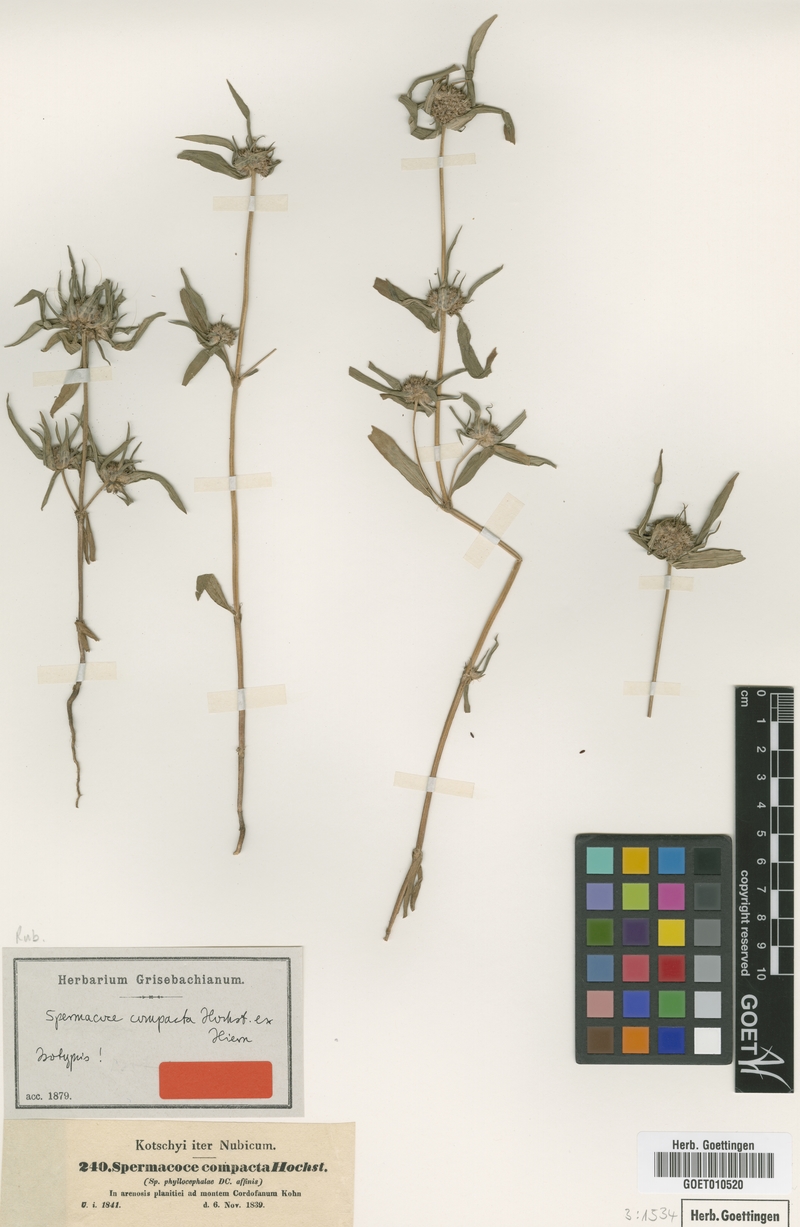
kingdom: Plantae
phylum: Tracheophyta
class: Magnoliopsida
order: Gentianales
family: Rubiaceae
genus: Spermacoce
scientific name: Spermacoce chaetocephala
